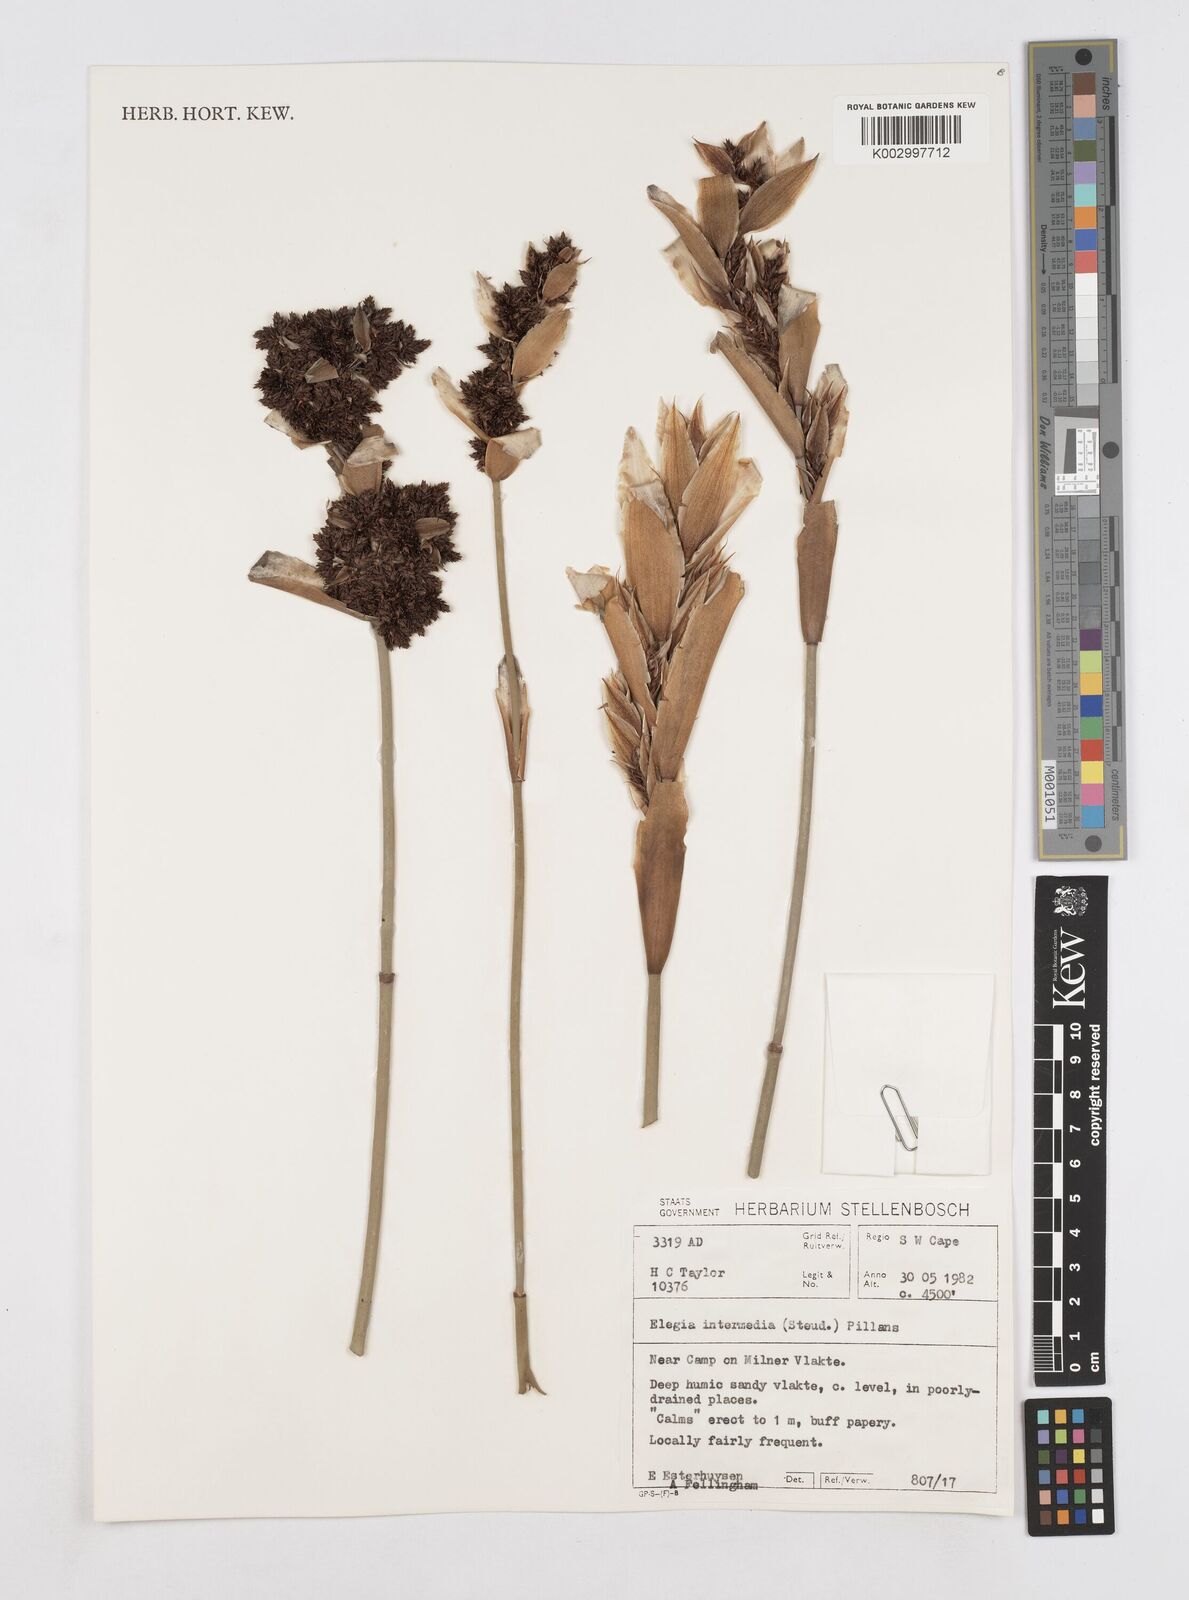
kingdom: Plantae
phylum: Tracheophyta
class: Liliopsida
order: Poales
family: Restionaceae
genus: Elegia
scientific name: Elegia intermedia
